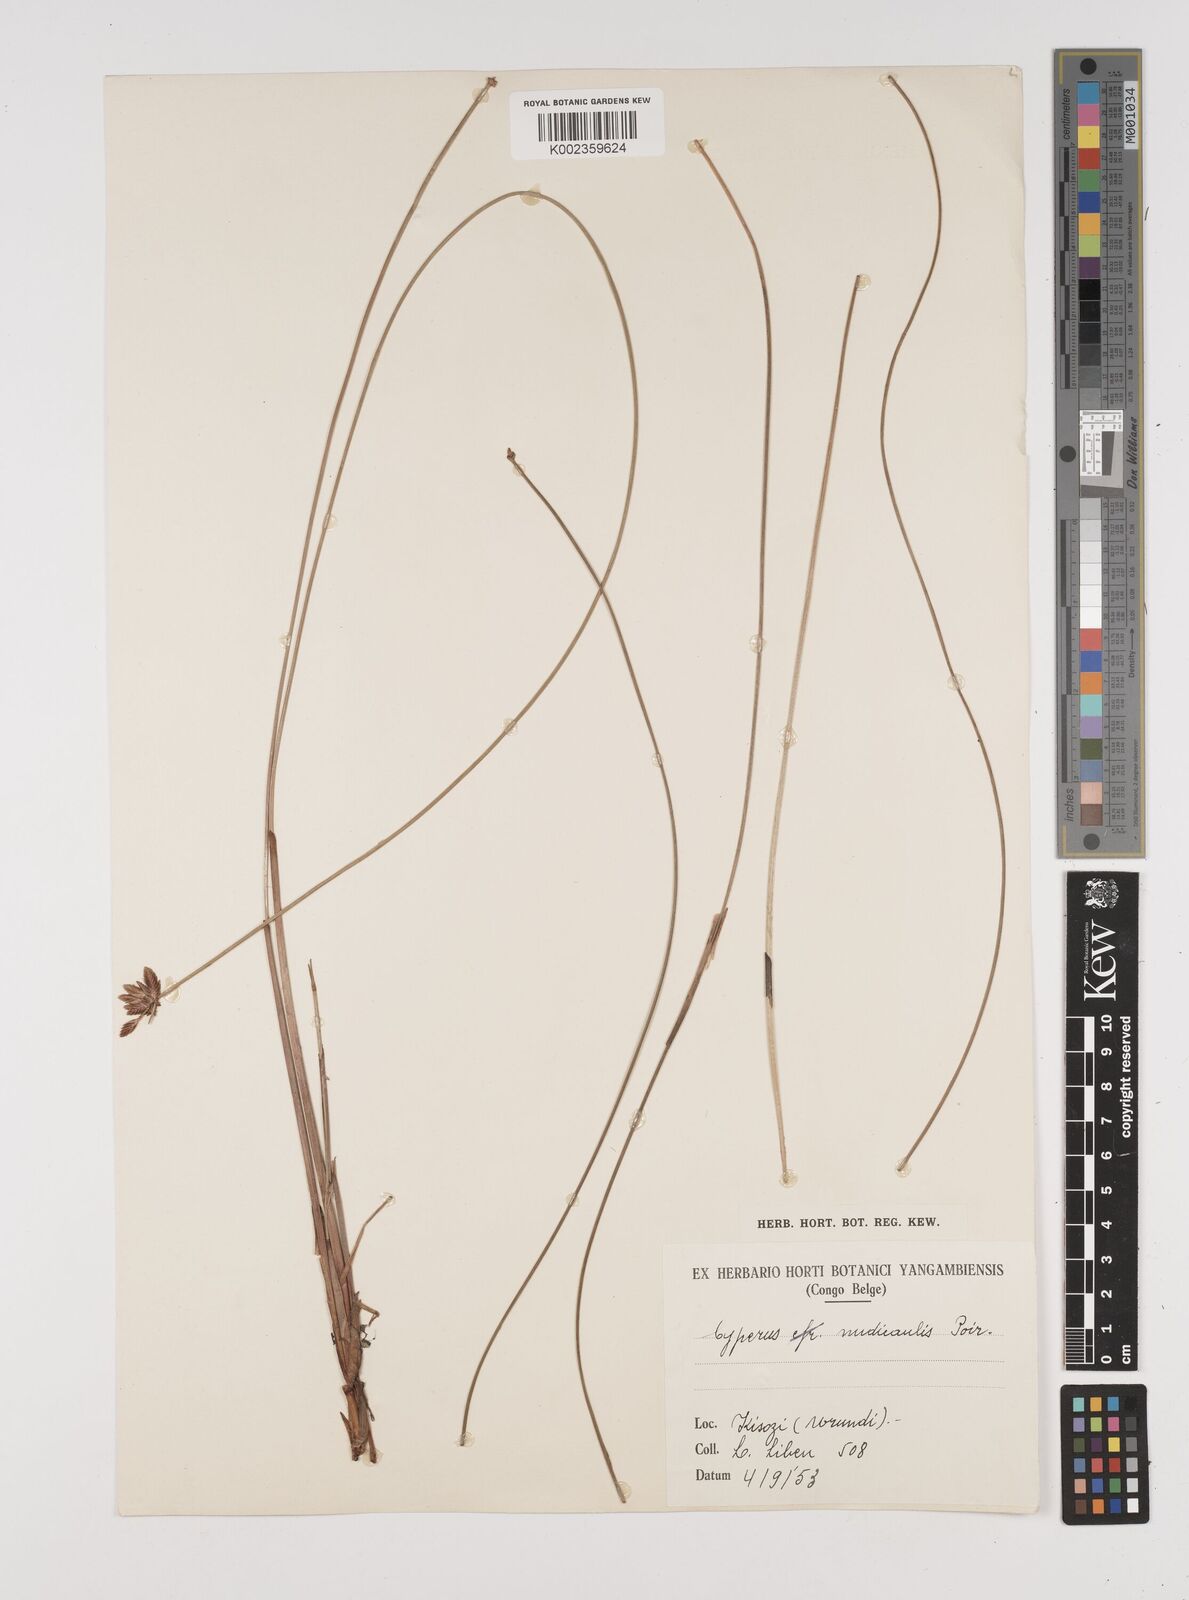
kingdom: Plantae
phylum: Tracheophyta
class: Liliopsida
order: Poales
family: Cyperaceae
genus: Cyperus
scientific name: Cyperus pectinatus
